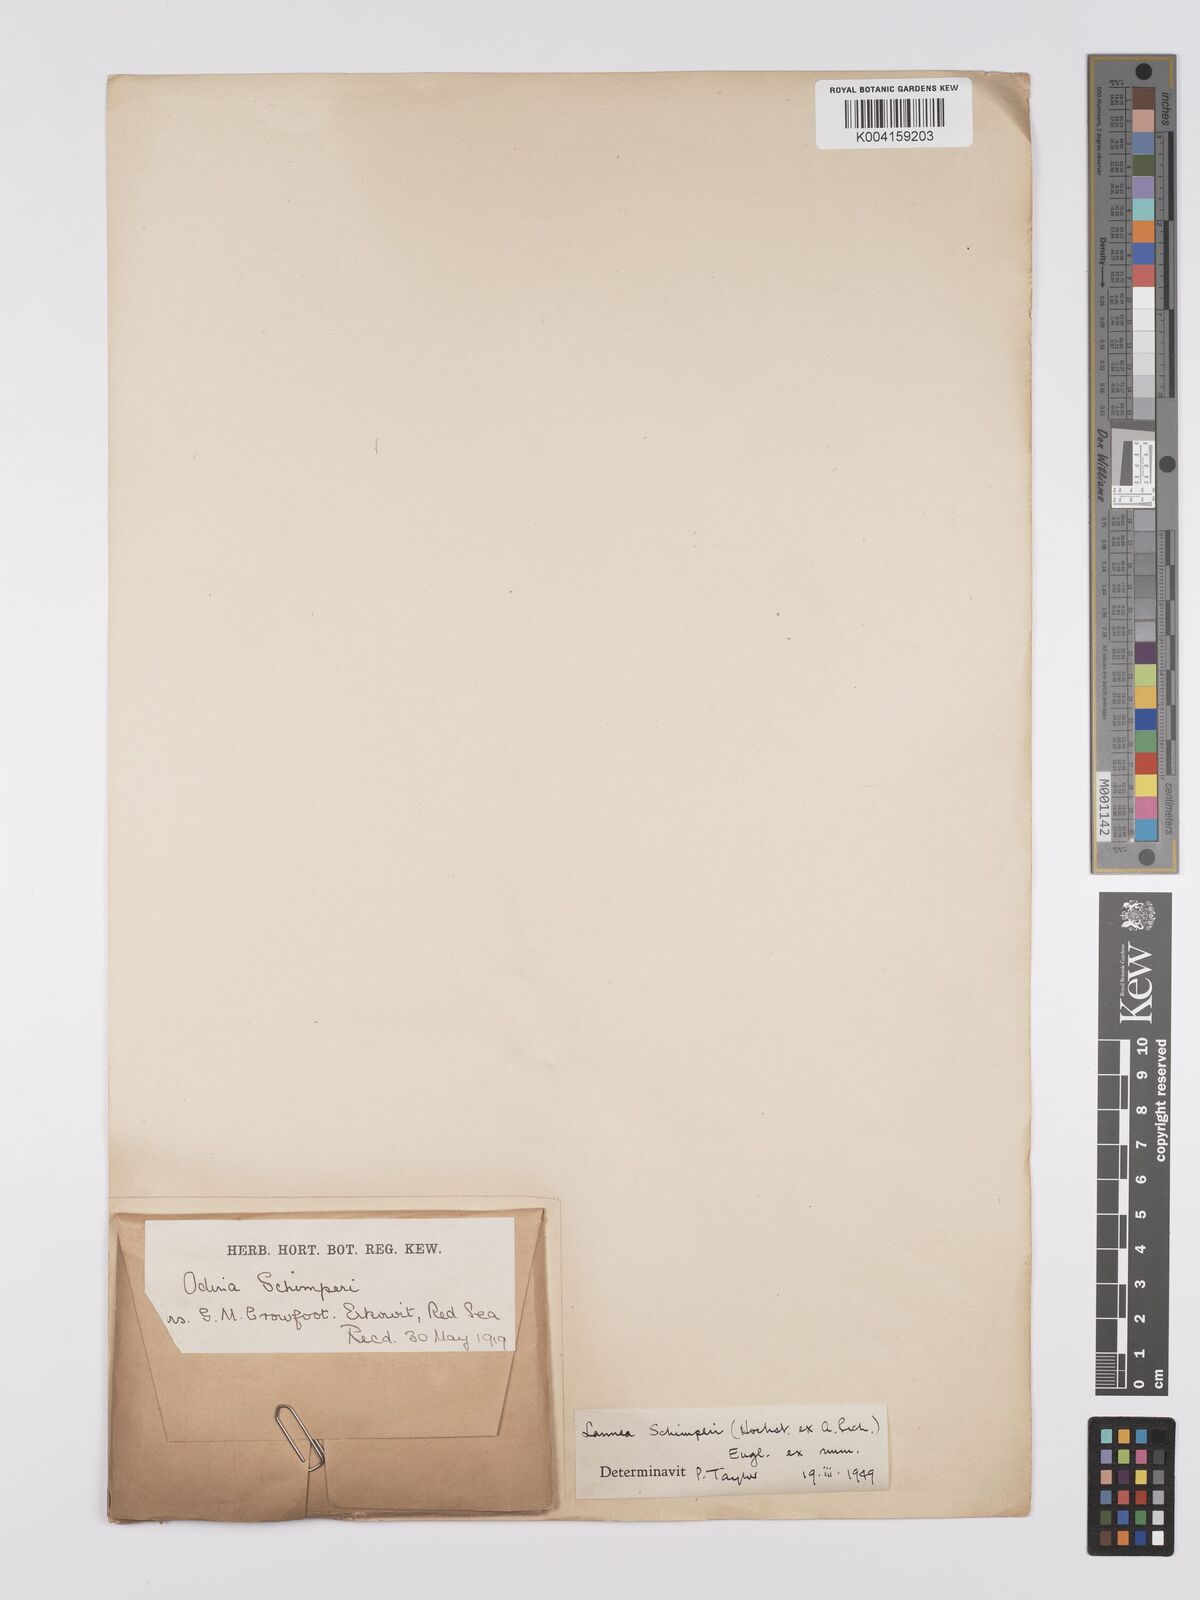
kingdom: Plantae
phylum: Tracheophyta
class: Magnoliopsida
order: Sapindales
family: Anacardiaceae
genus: Lannea
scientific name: Lannea schimperi
